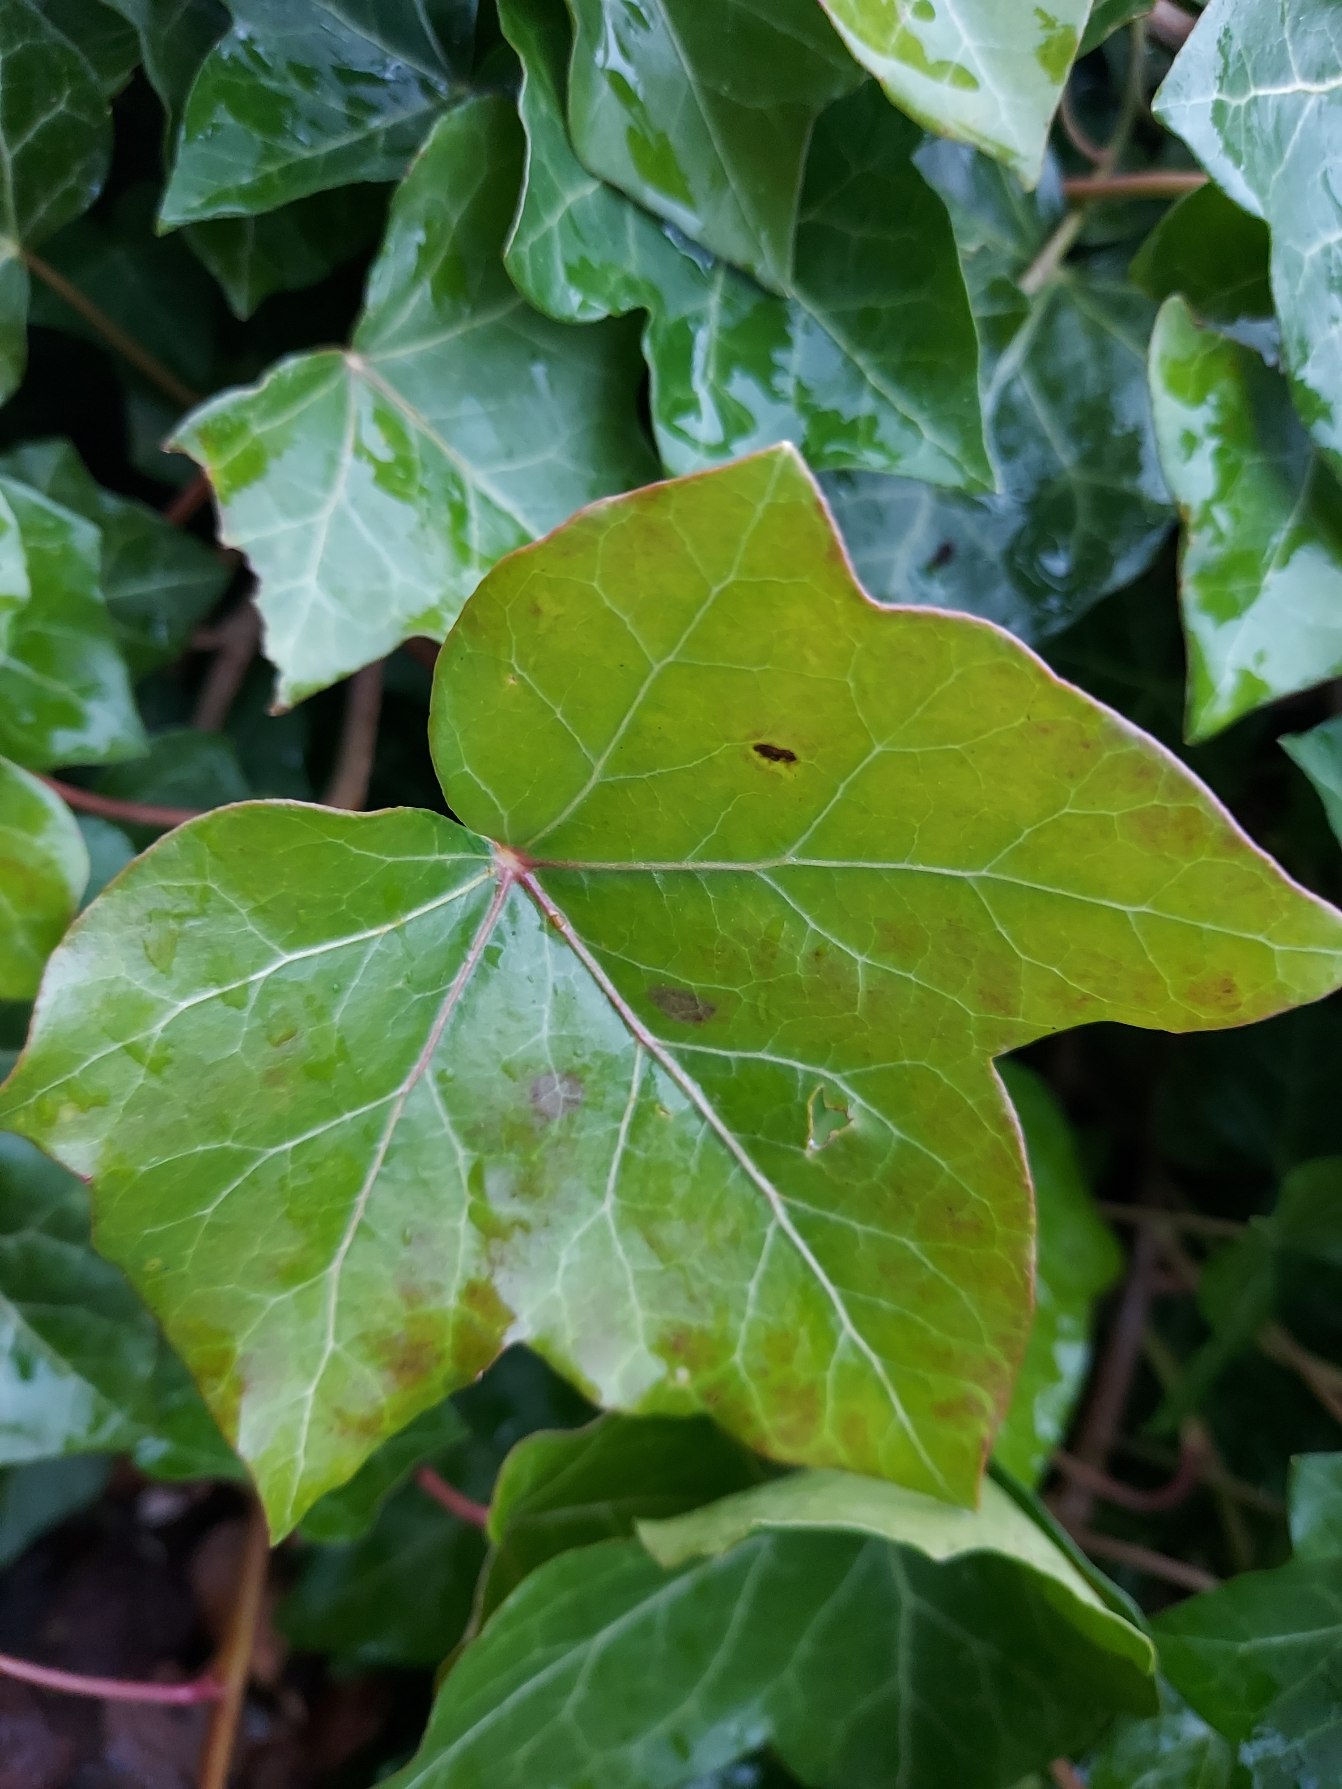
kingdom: Plantae
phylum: Tracheophyta
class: Magnoliopsida
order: Apiales
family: Araliaceae
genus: Hedera
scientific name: Hedera helix
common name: Vedbend
